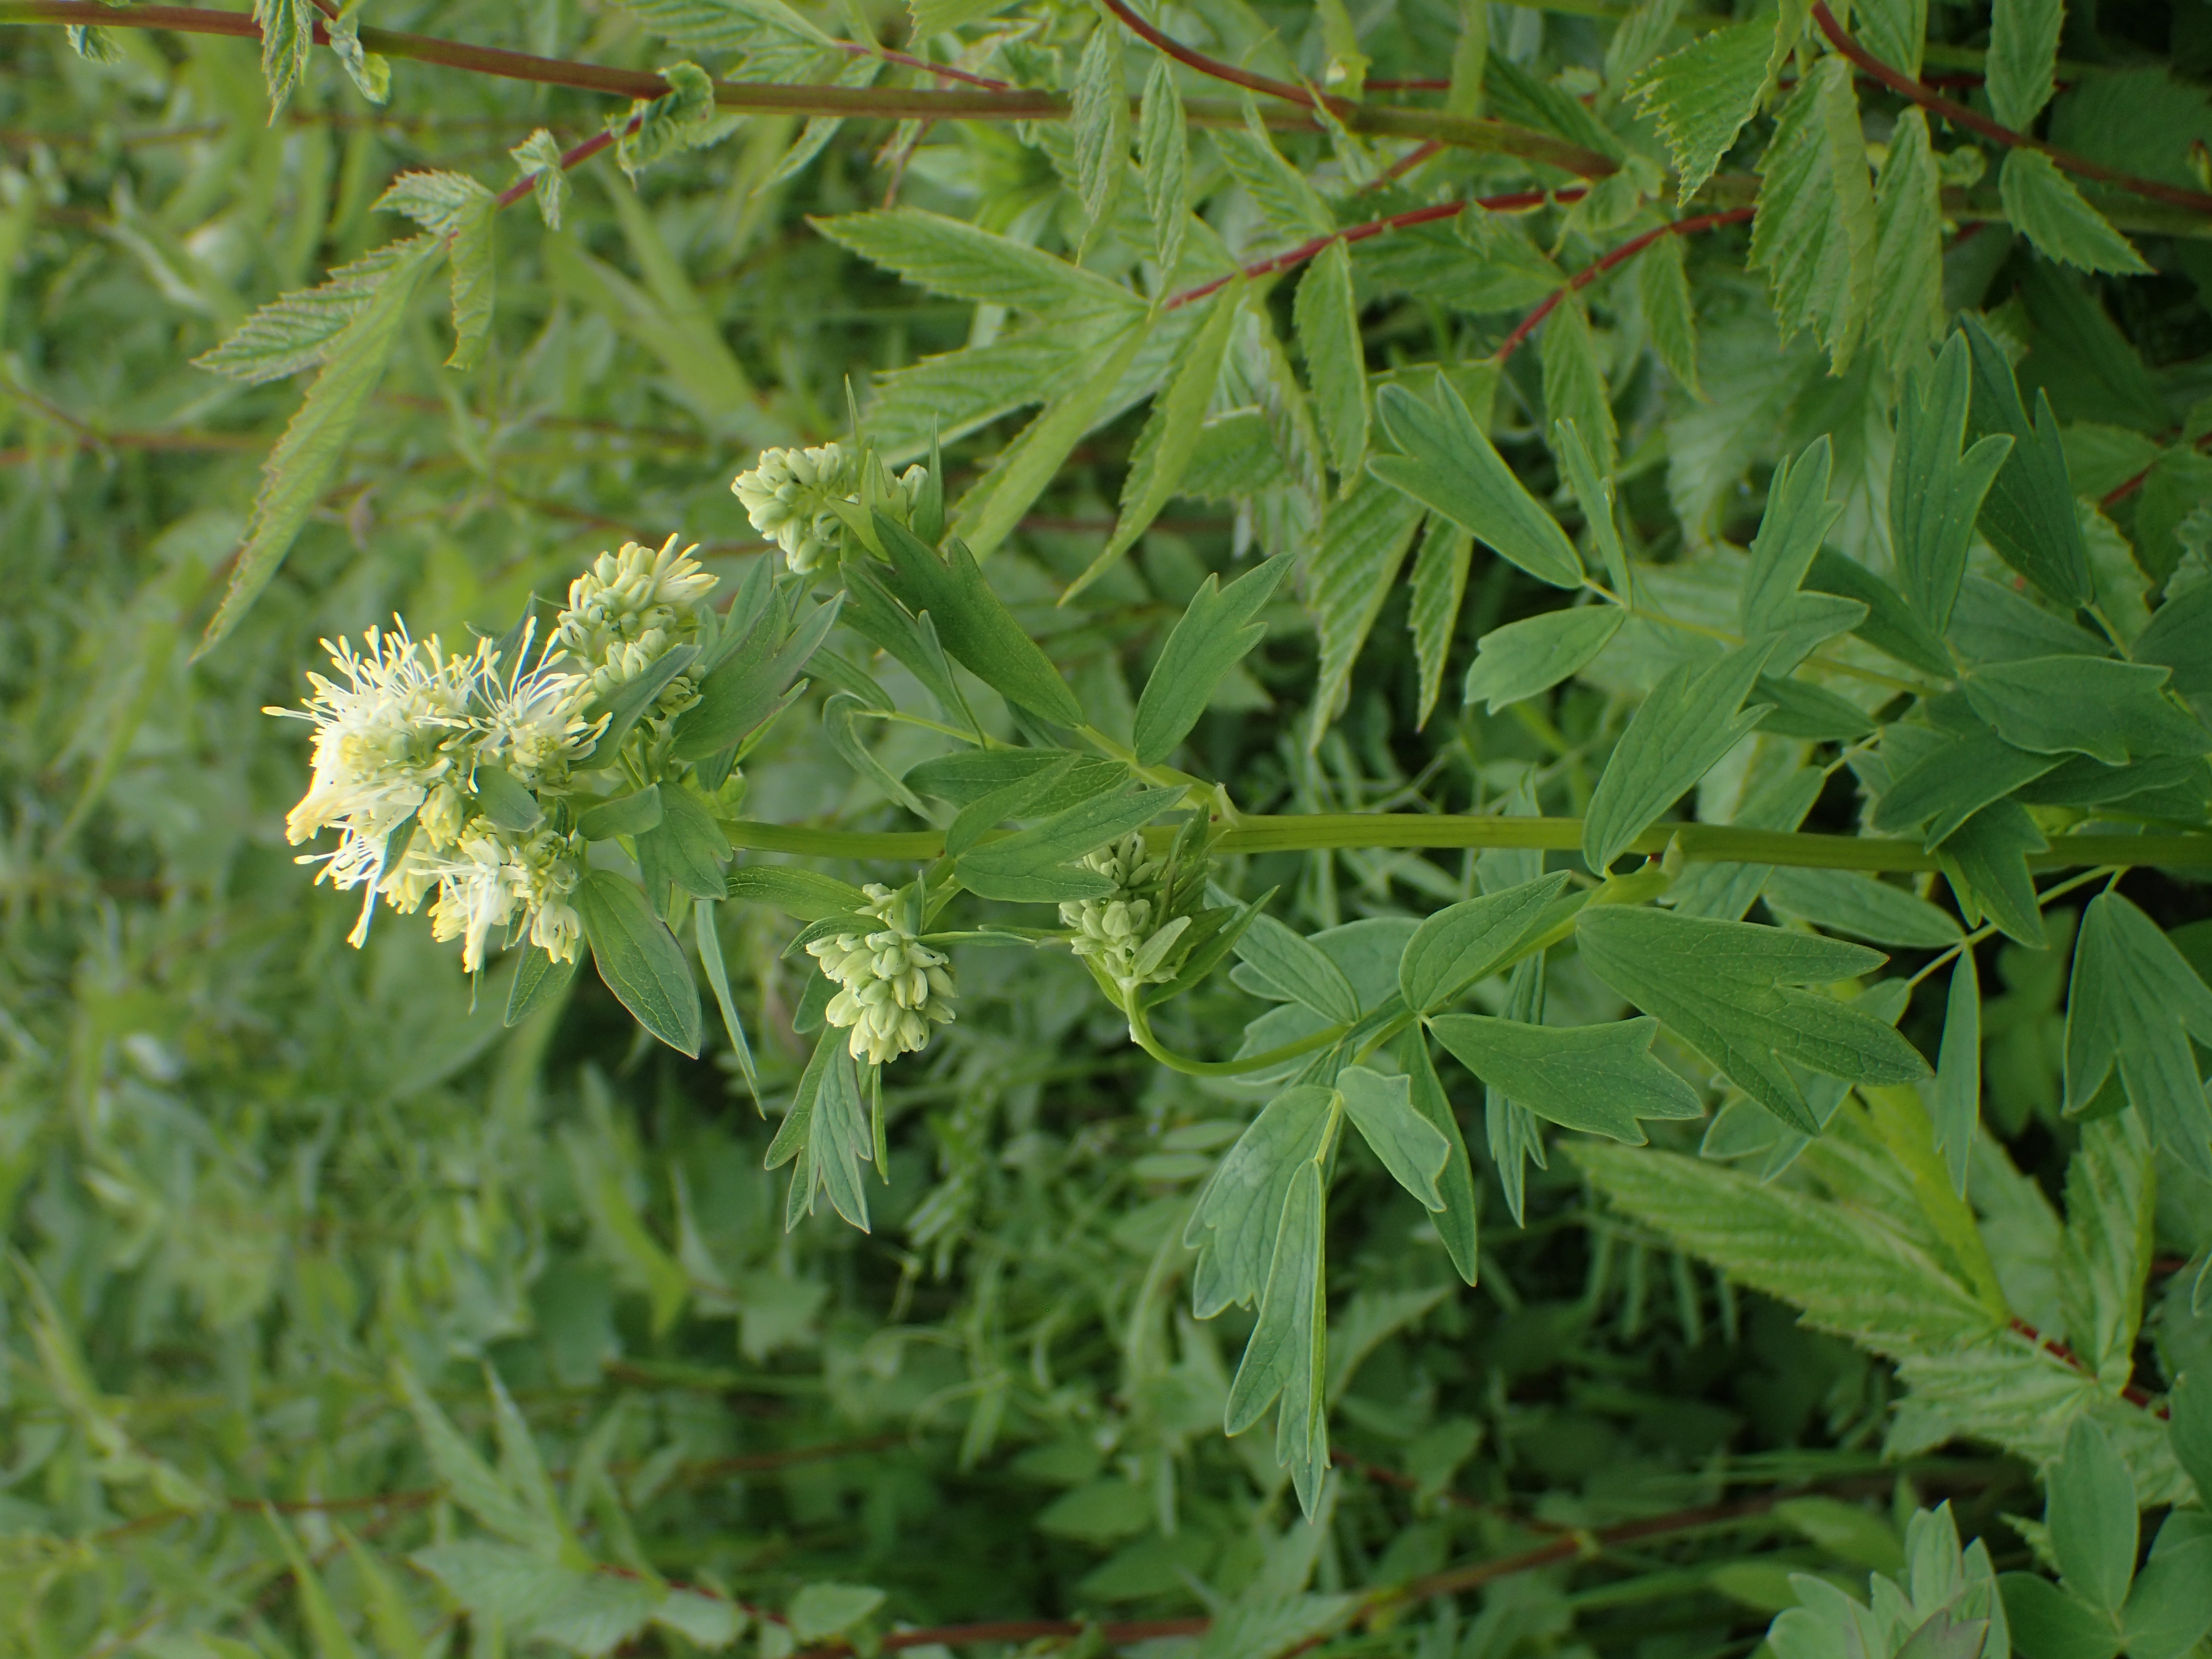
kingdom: Plantae
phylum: Tracheophyta
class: Magnoliopsida
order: Ranunculales
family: Ranunculaceae
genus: Thalictrum
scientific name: Thalictrum flavum
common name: Common meadow-rue
